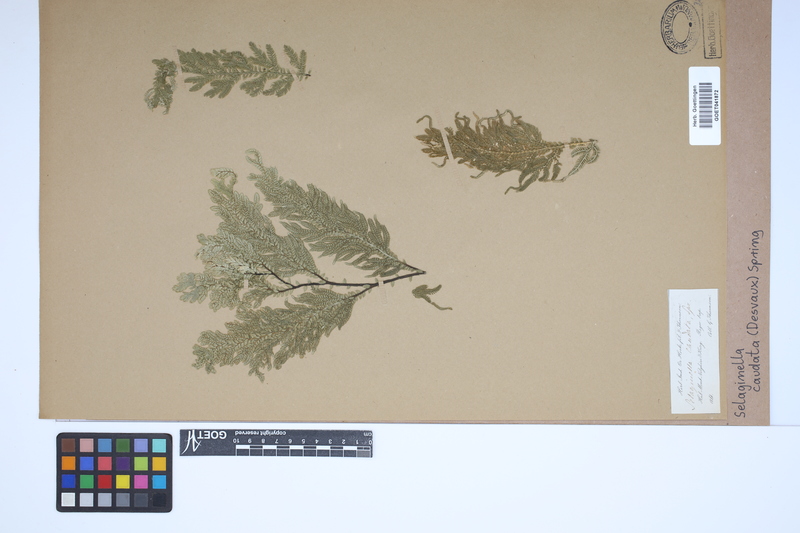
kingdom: Plantae
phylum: Tracheophyta
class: Lycopodiopsida
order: Selaginellales
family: Selaginellaceae
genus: Selaginella
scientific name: Selaginella caudata
